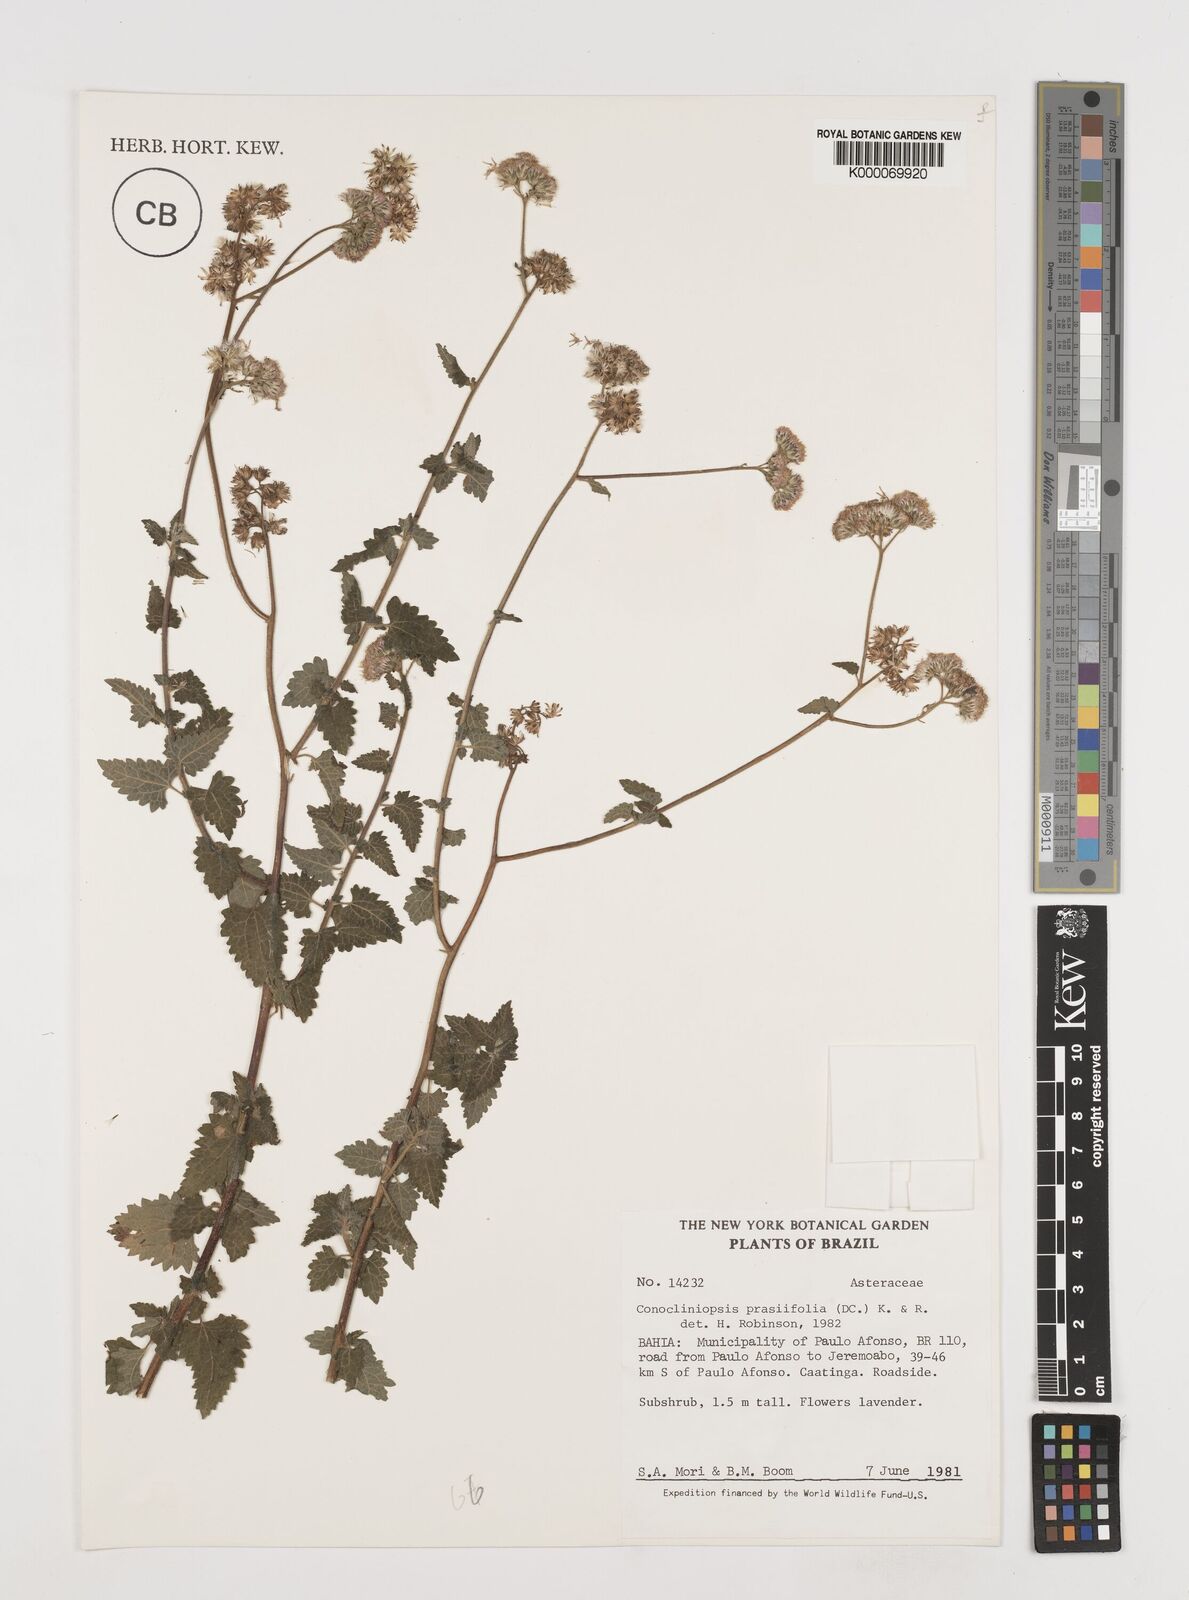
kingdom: Plantae
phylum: Tracheophyta
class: Magnoliopsida
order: Asterales
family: Asteraceae
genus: Conocliniopsis
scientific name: Conocliniopsis grossedentata
